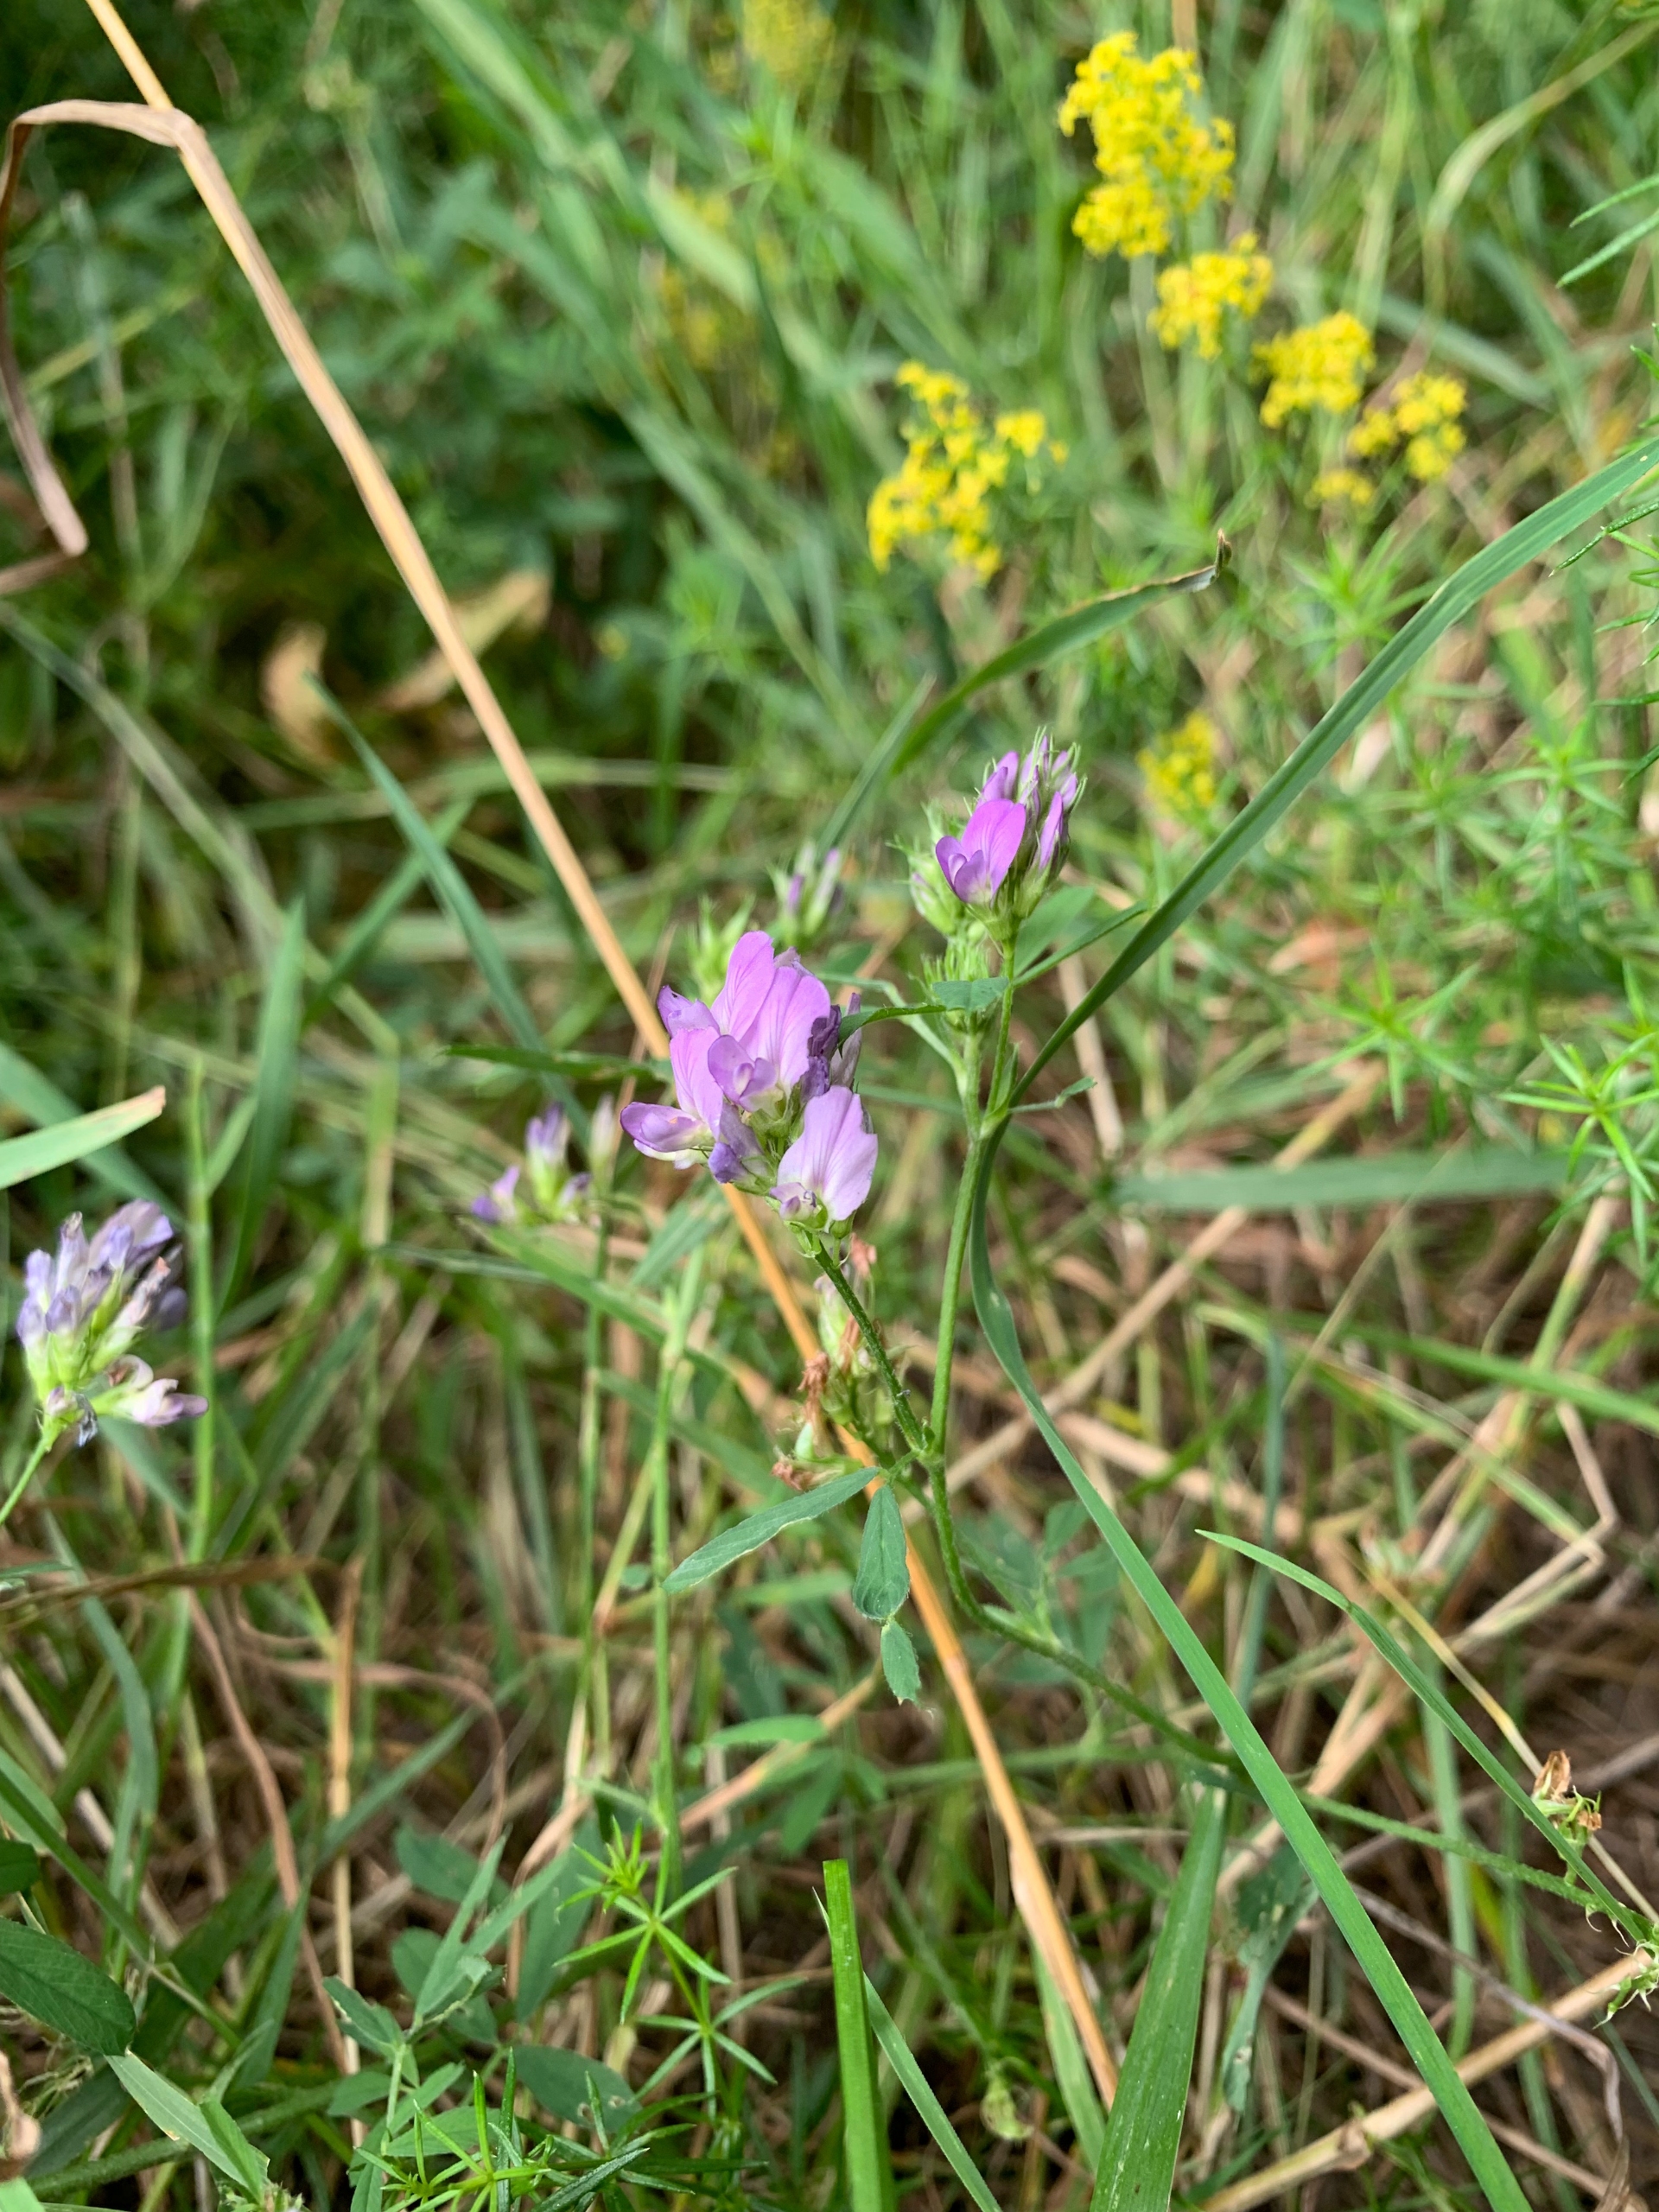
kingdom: Plantae
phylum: Tracheophyta
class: Magnoliopsida
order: Fabales
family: Fabaceae
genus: Medicago
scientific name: Medicago sativa
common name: Lucerne
